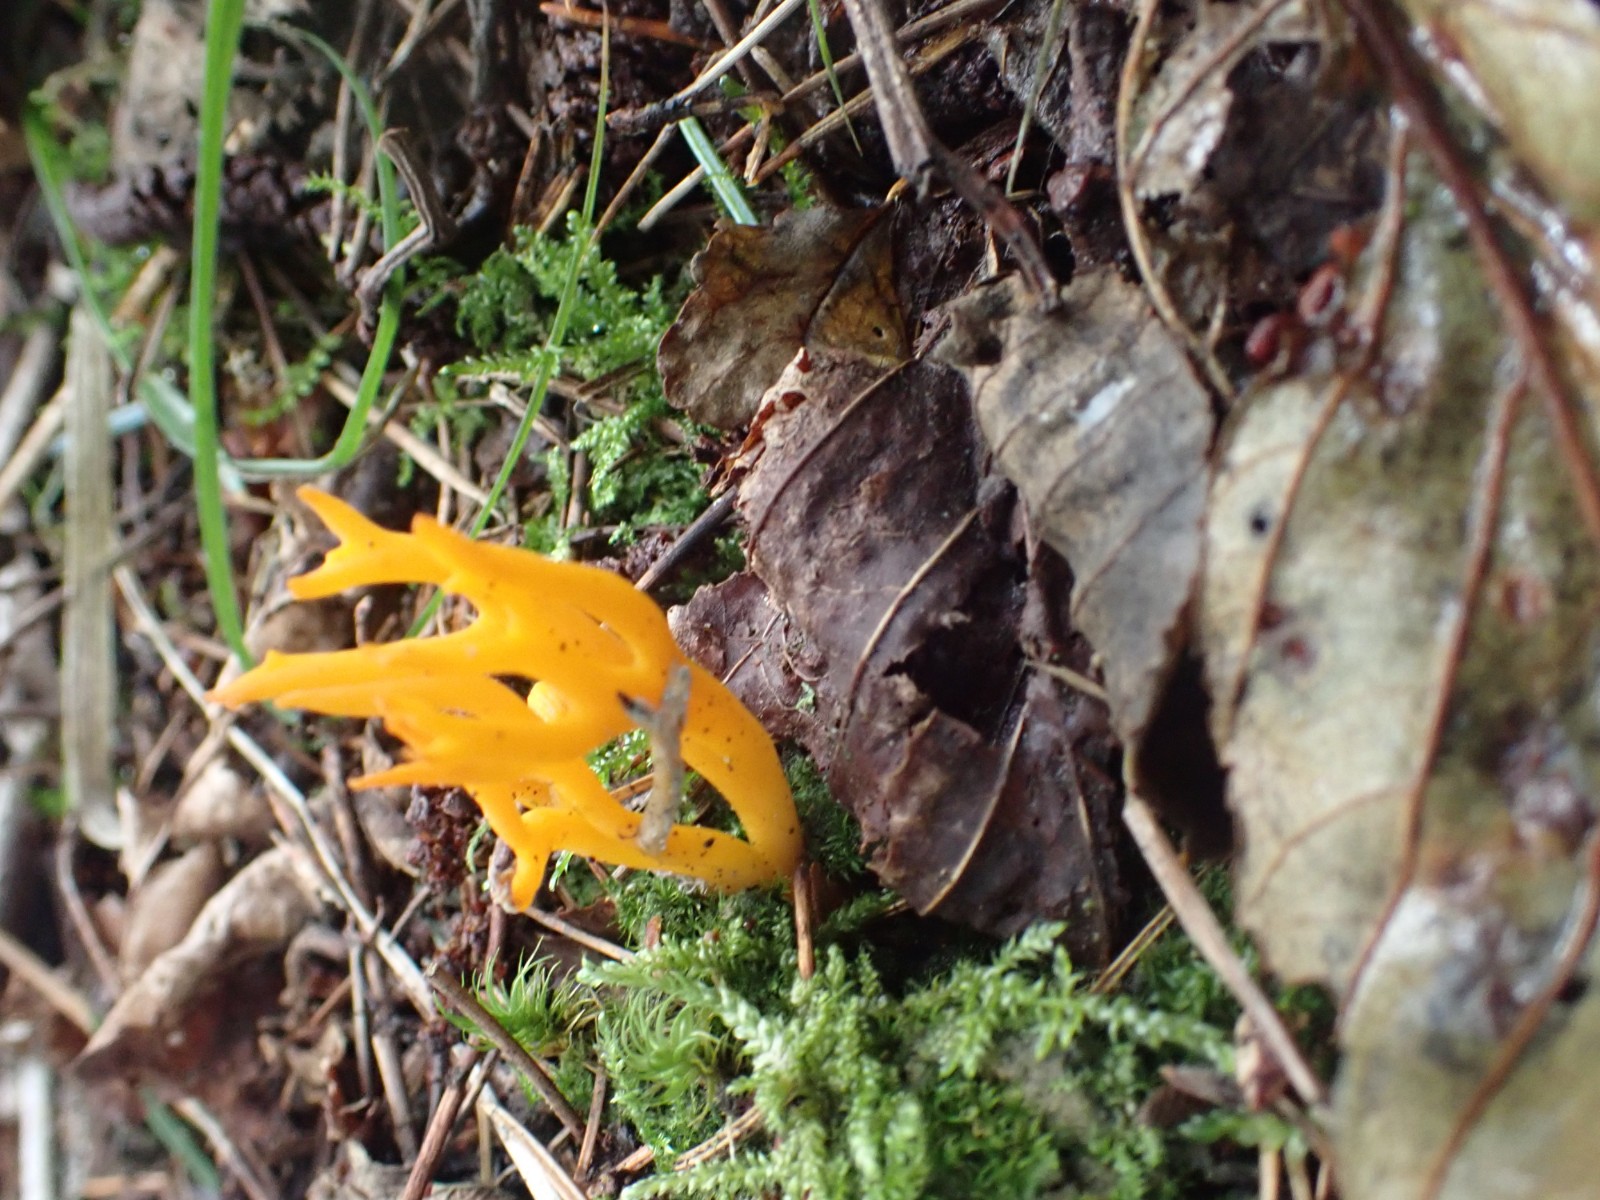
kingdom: Fungi
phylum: Basidiomycota
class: Dacrymycetes
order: Dacrymycetales
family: Dacrymycetaceae
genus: Calocera
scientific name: Calocera viscosa
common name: almindelig guldgaffel
